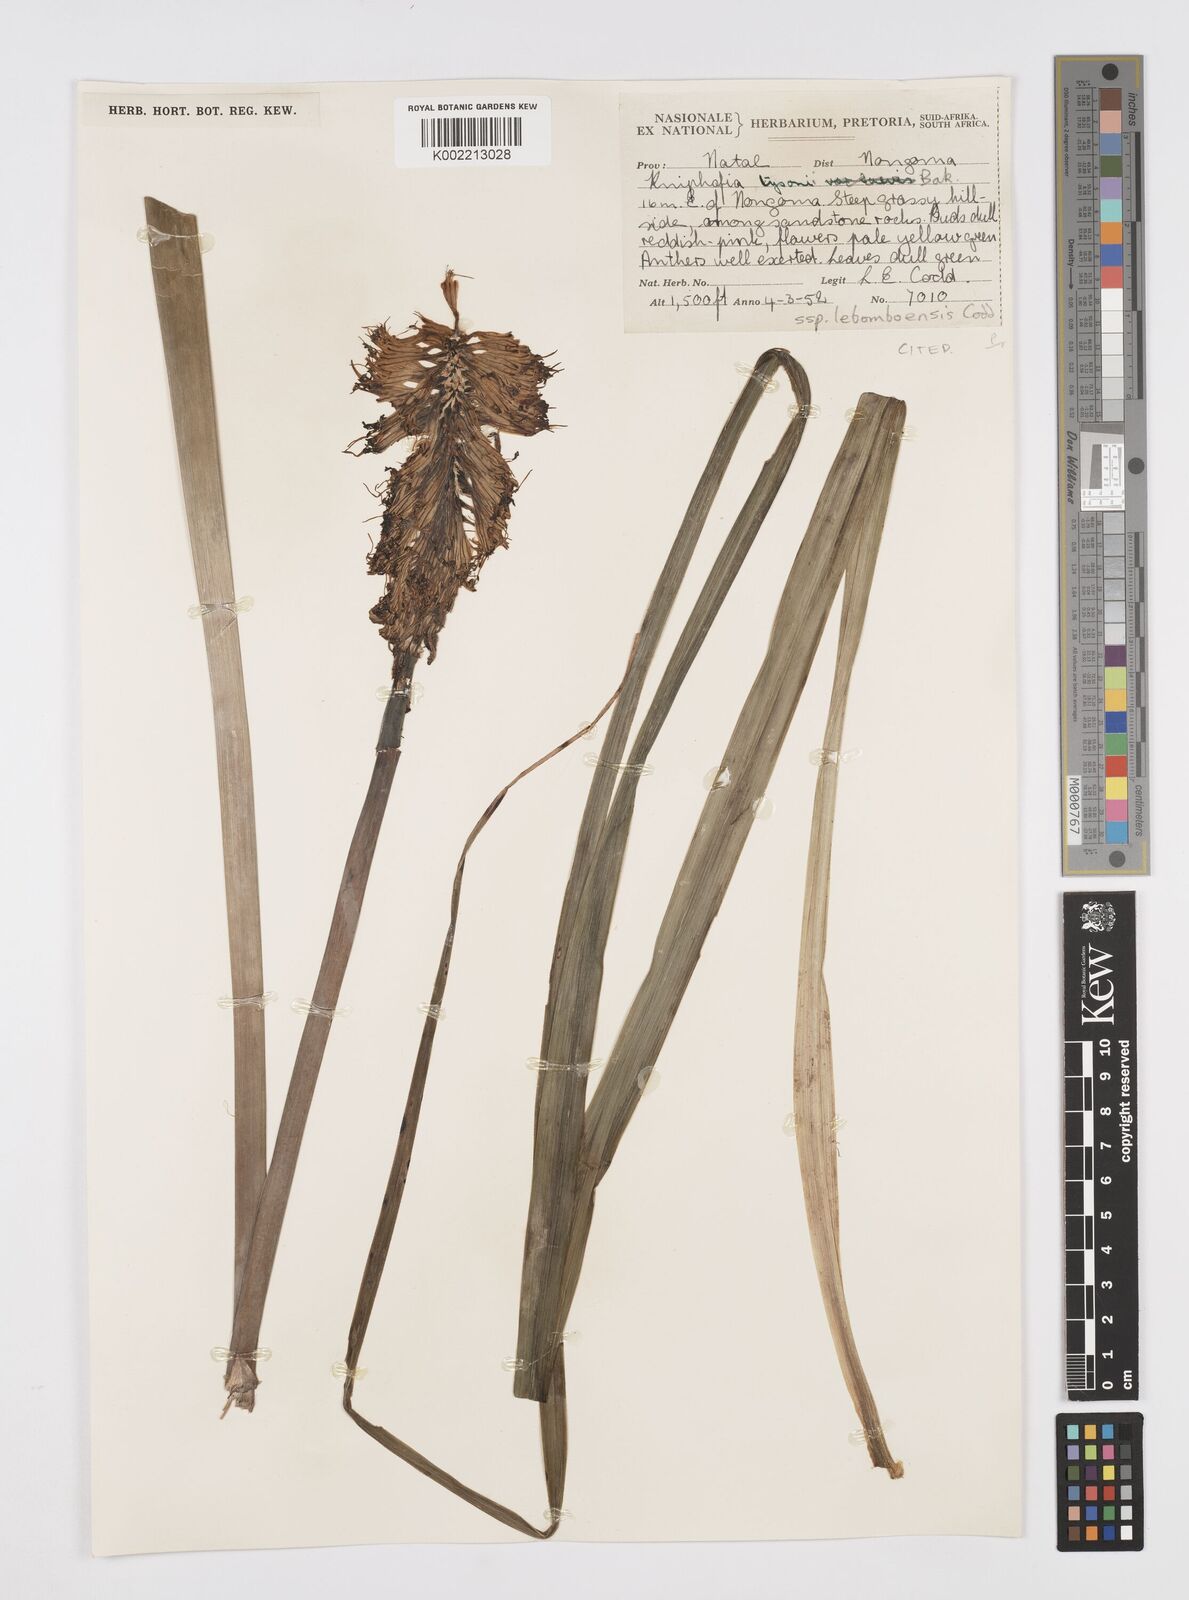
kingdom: Plantae
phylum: Tracheophyta
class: Liliopsida
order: Asparagales
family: Asphodelaceae
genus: Kniphofia
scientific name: Kniphofia tysonii
